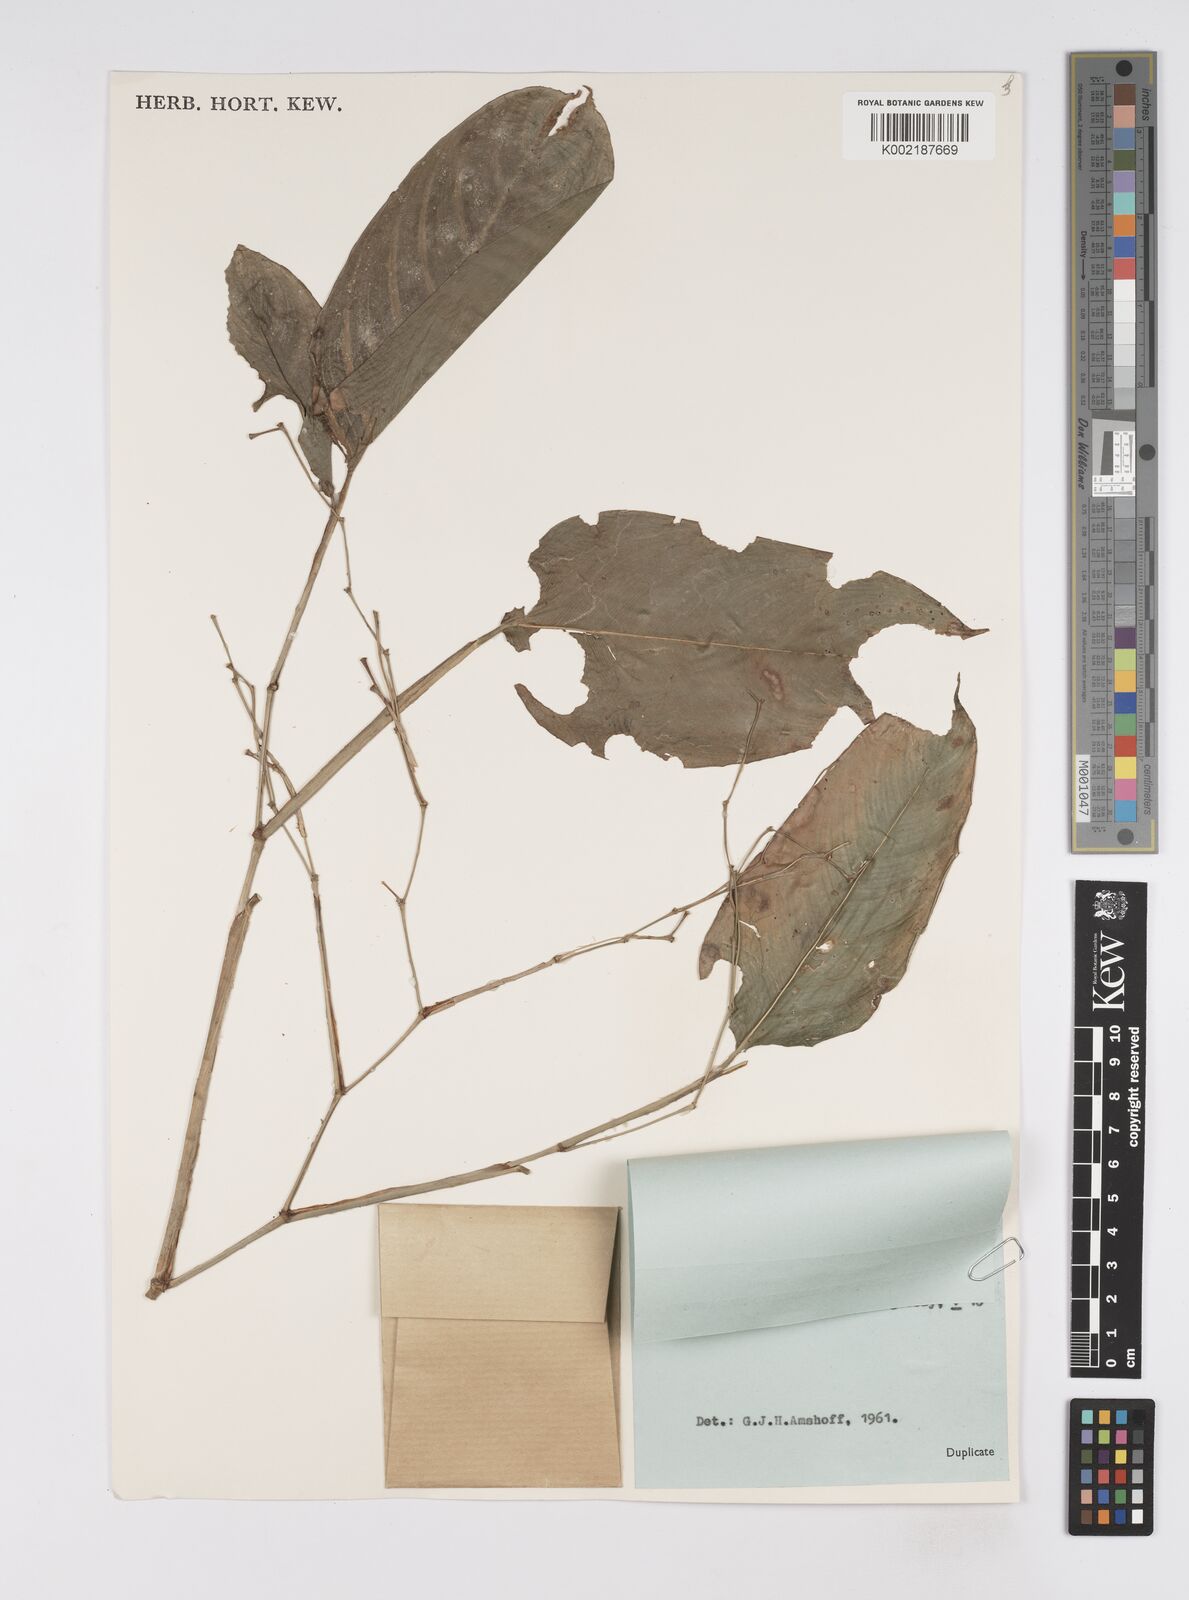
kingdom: Plantae
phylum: Tracheophyta
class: Liliopsida
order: Zingiberales
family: Marantaceae
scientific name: Marantaceae
